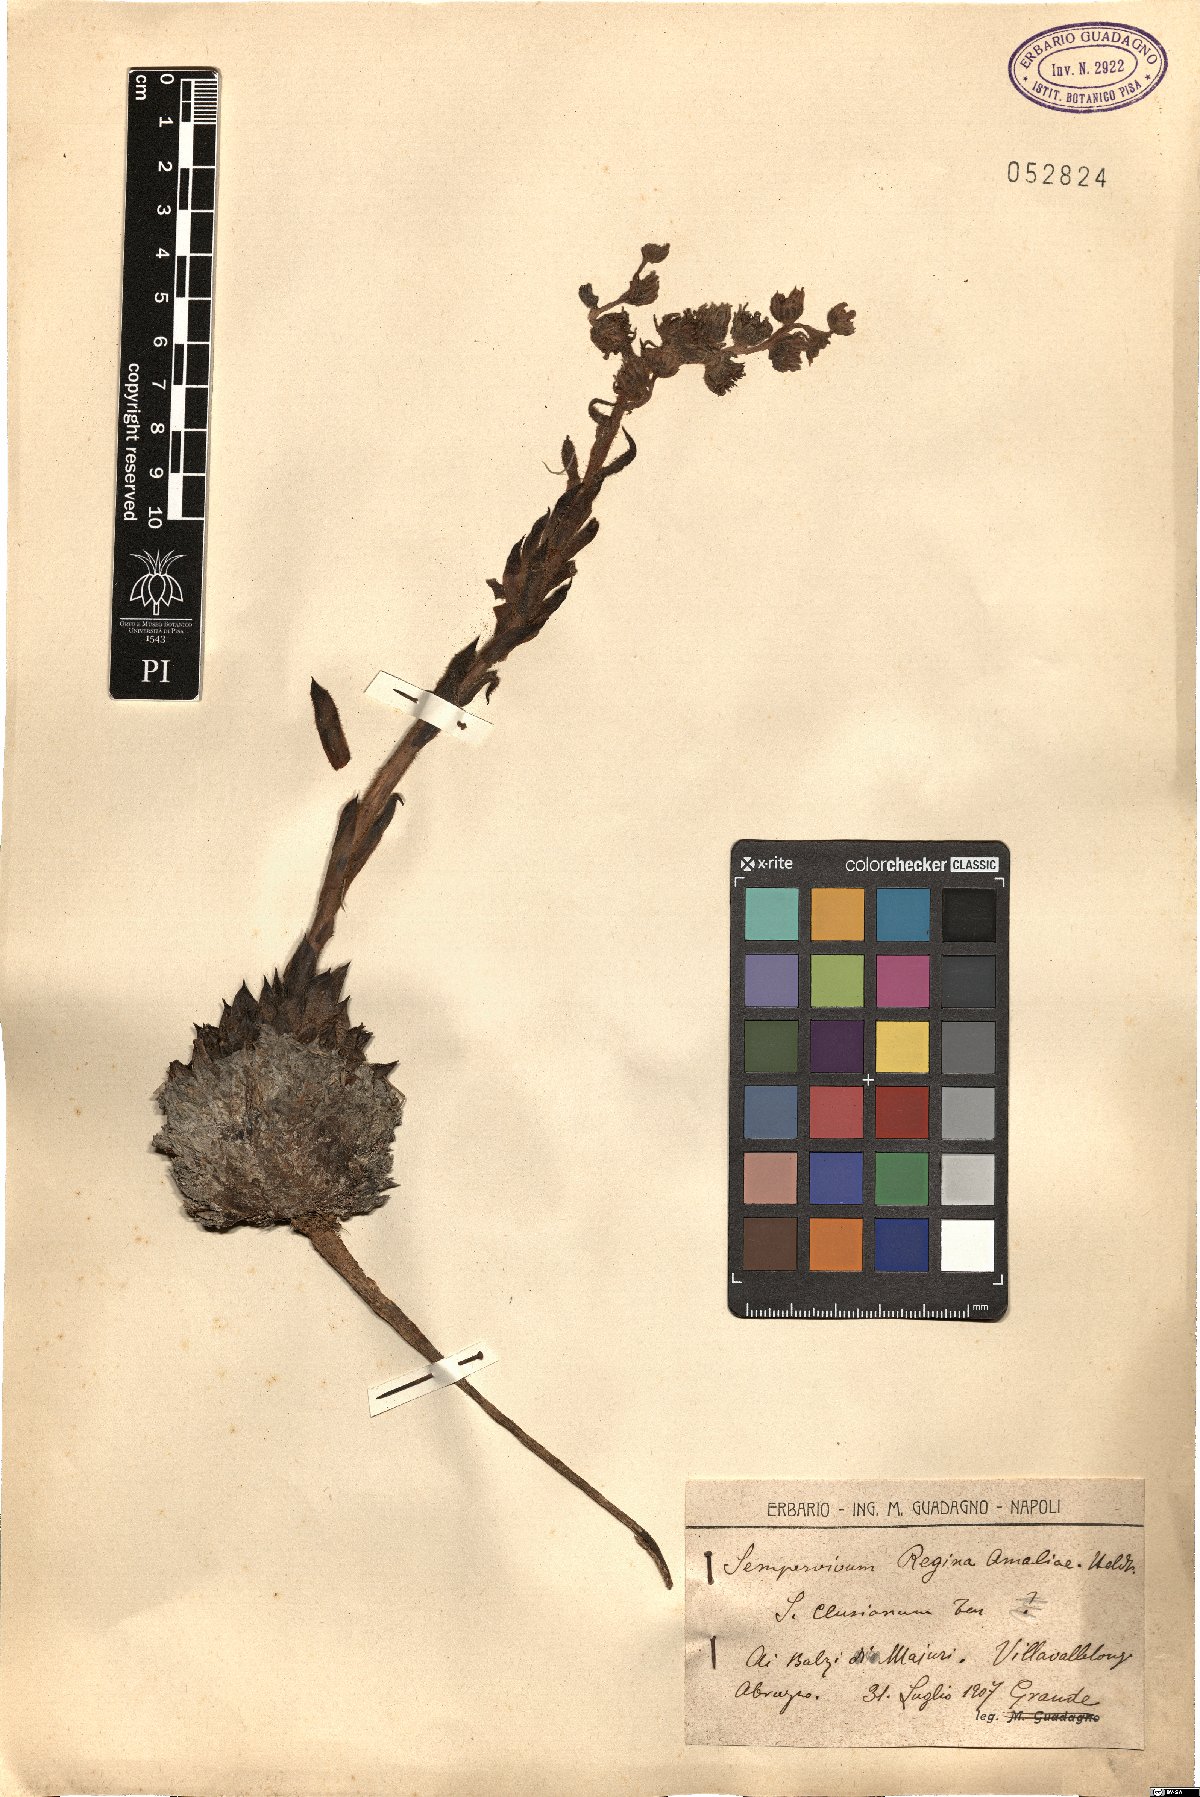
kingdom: Plantae
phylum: Tracheophyta
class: Magnoliopsida
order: Saxifragales
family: Crassulaceae
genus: Sempervivum
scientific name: Sempervivum verereginae-amaliae
